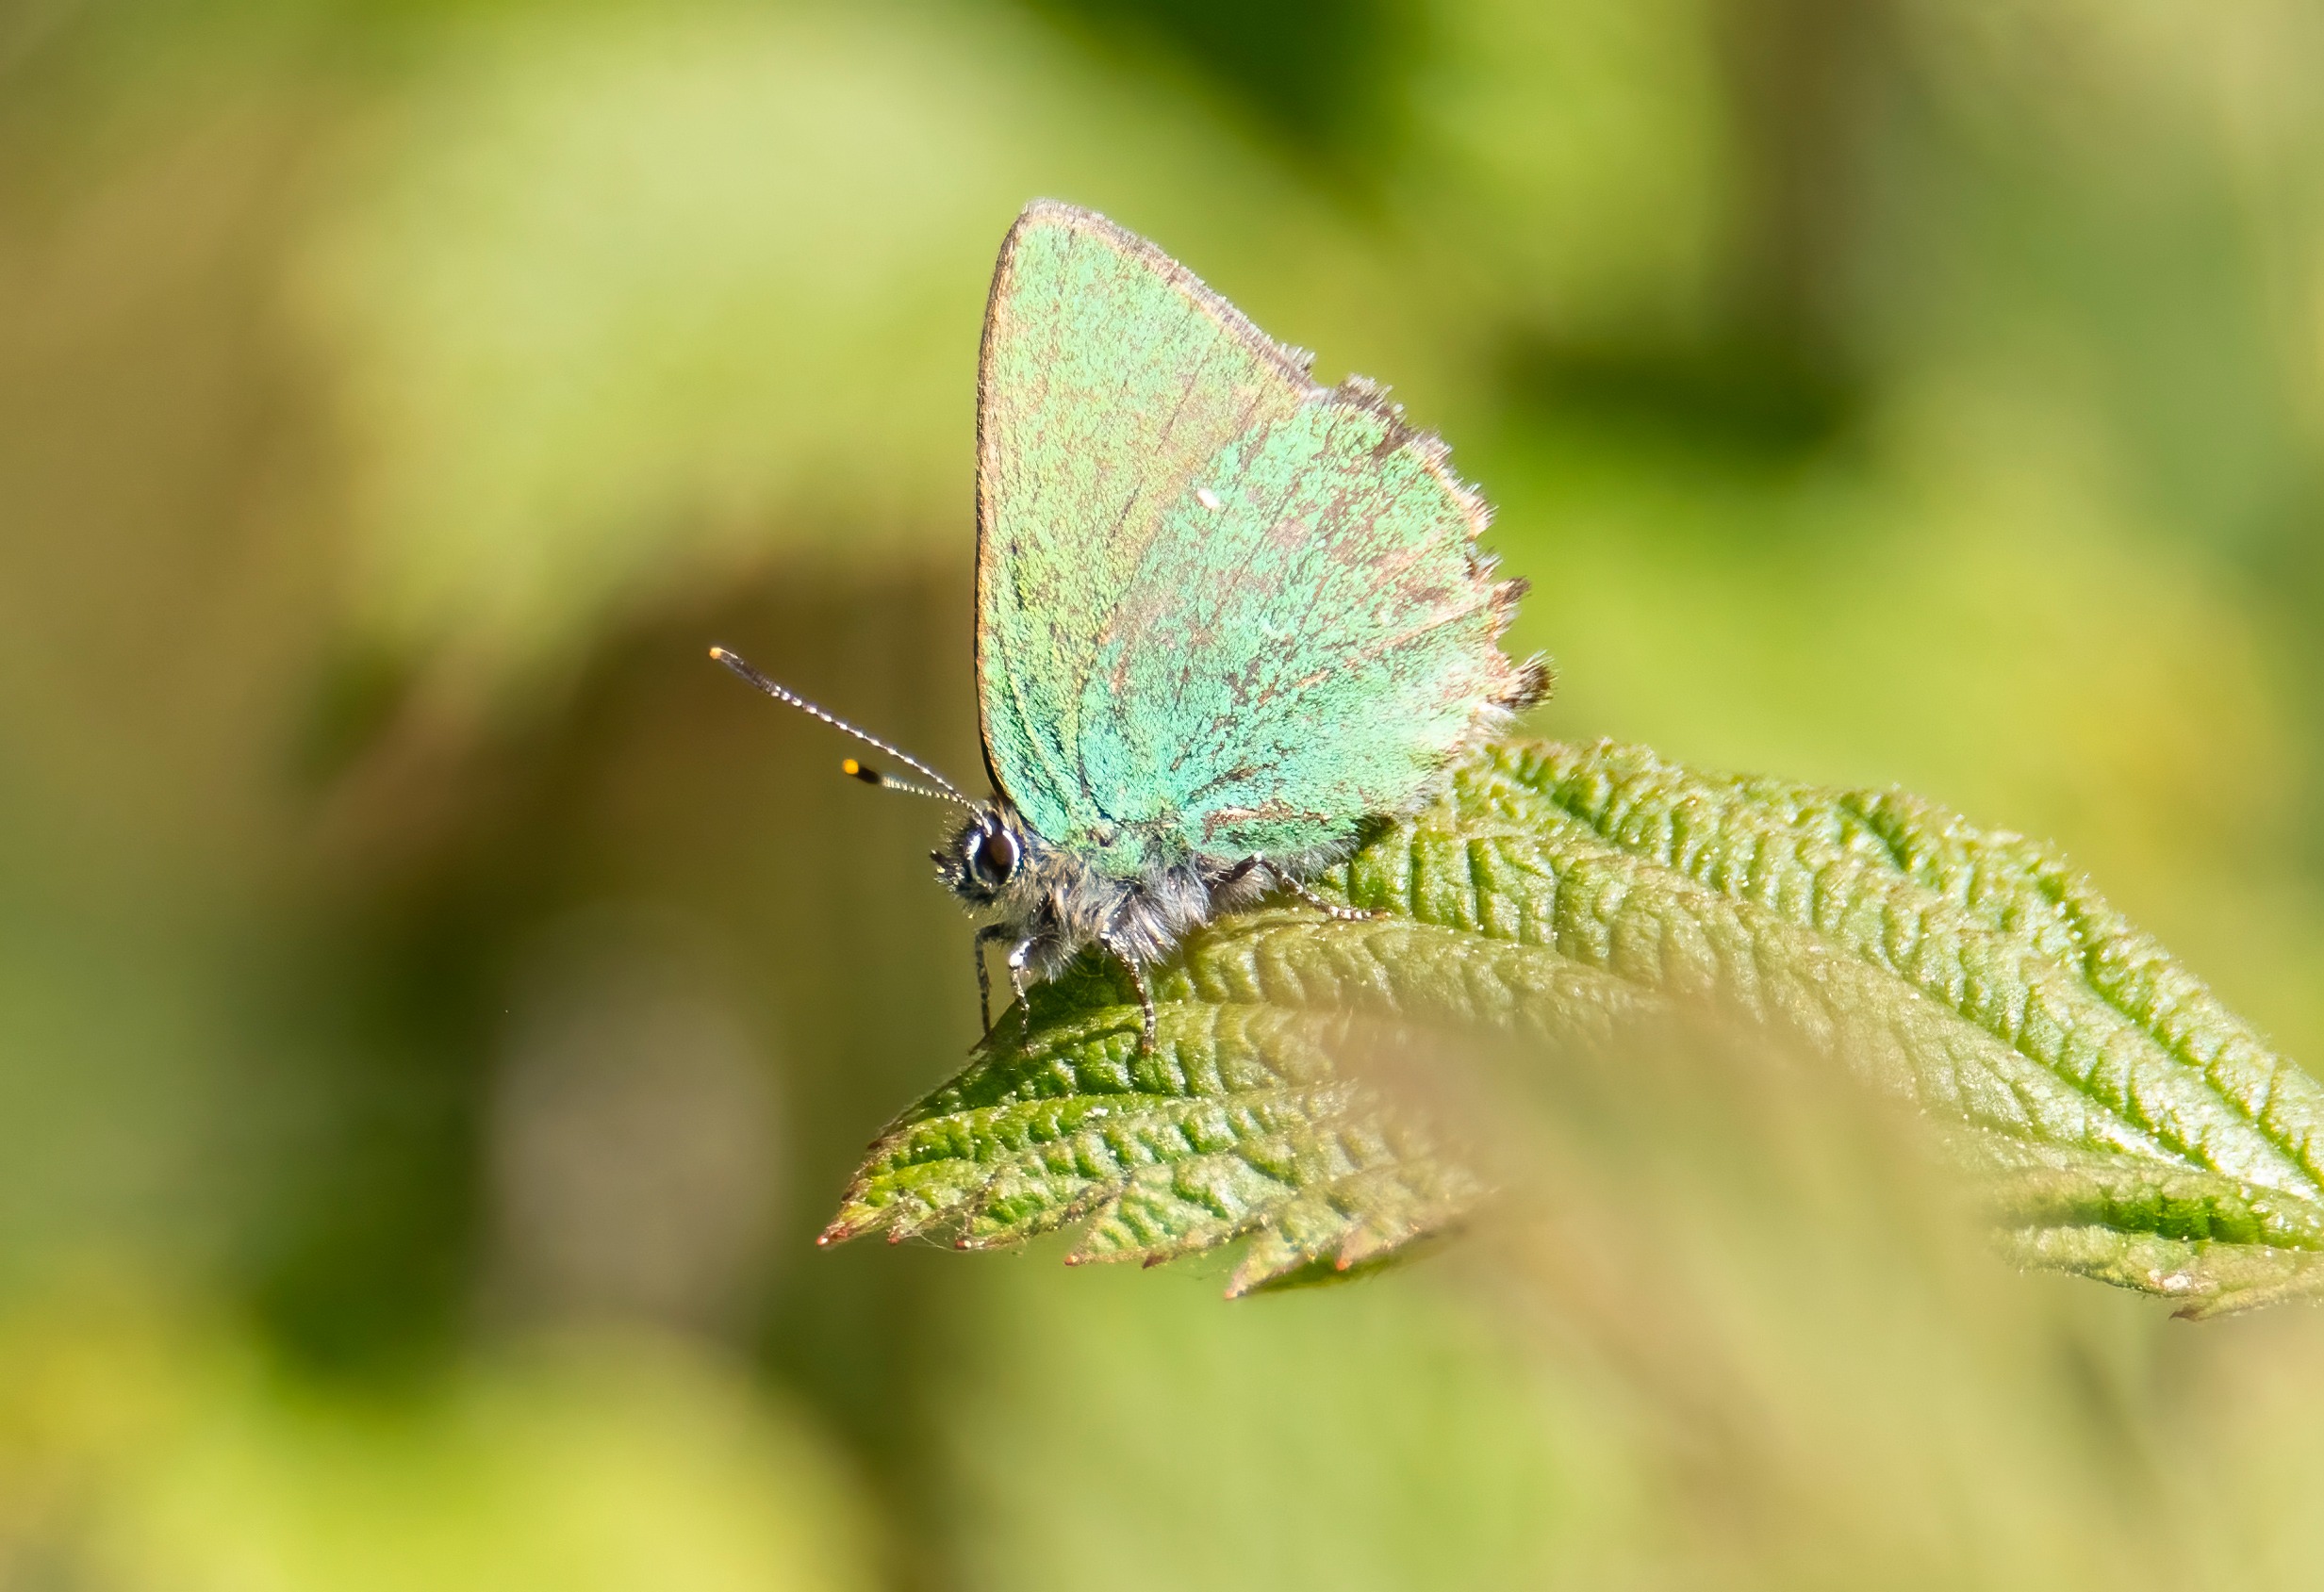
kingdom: Animalia
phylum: Arthropoda
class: Insecta
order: Lepidoptera
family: Lycaenidae
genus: Callophrys
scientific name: Callophrys rubi
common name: Grøn busksommerfugl
